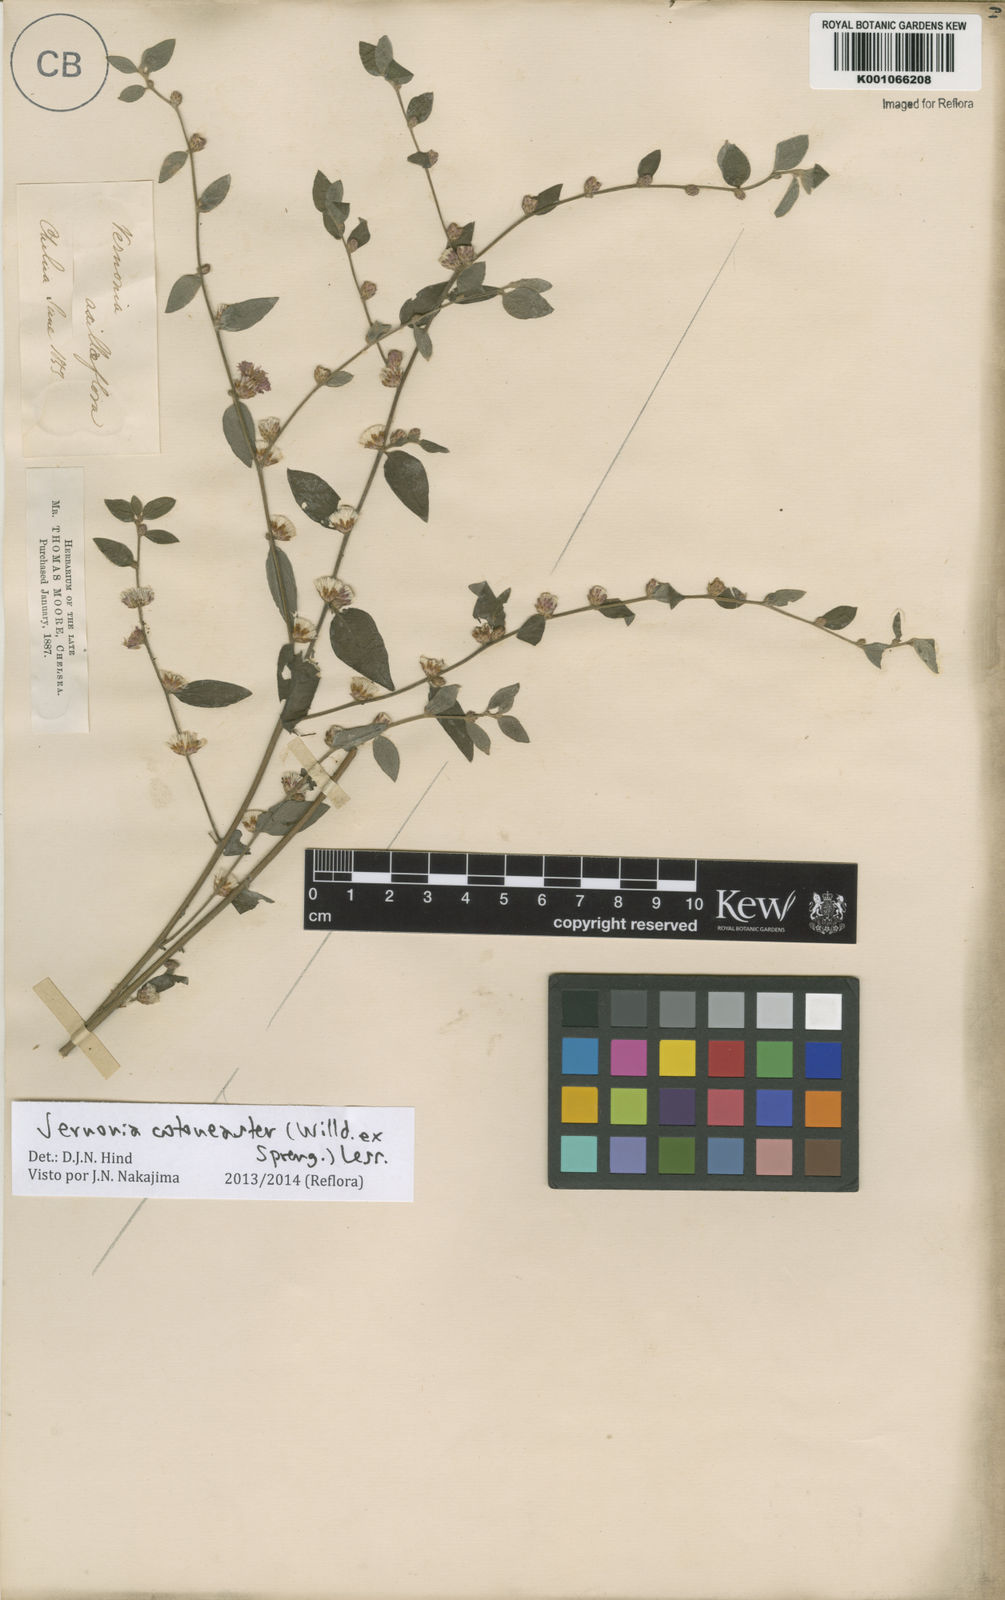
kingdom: Plantae
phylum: Tracheophyta
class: Magnoliopsida
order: Asterales
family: Asteraceae
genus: Lepidaploa
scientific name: Lepidaploa cotoneaster
